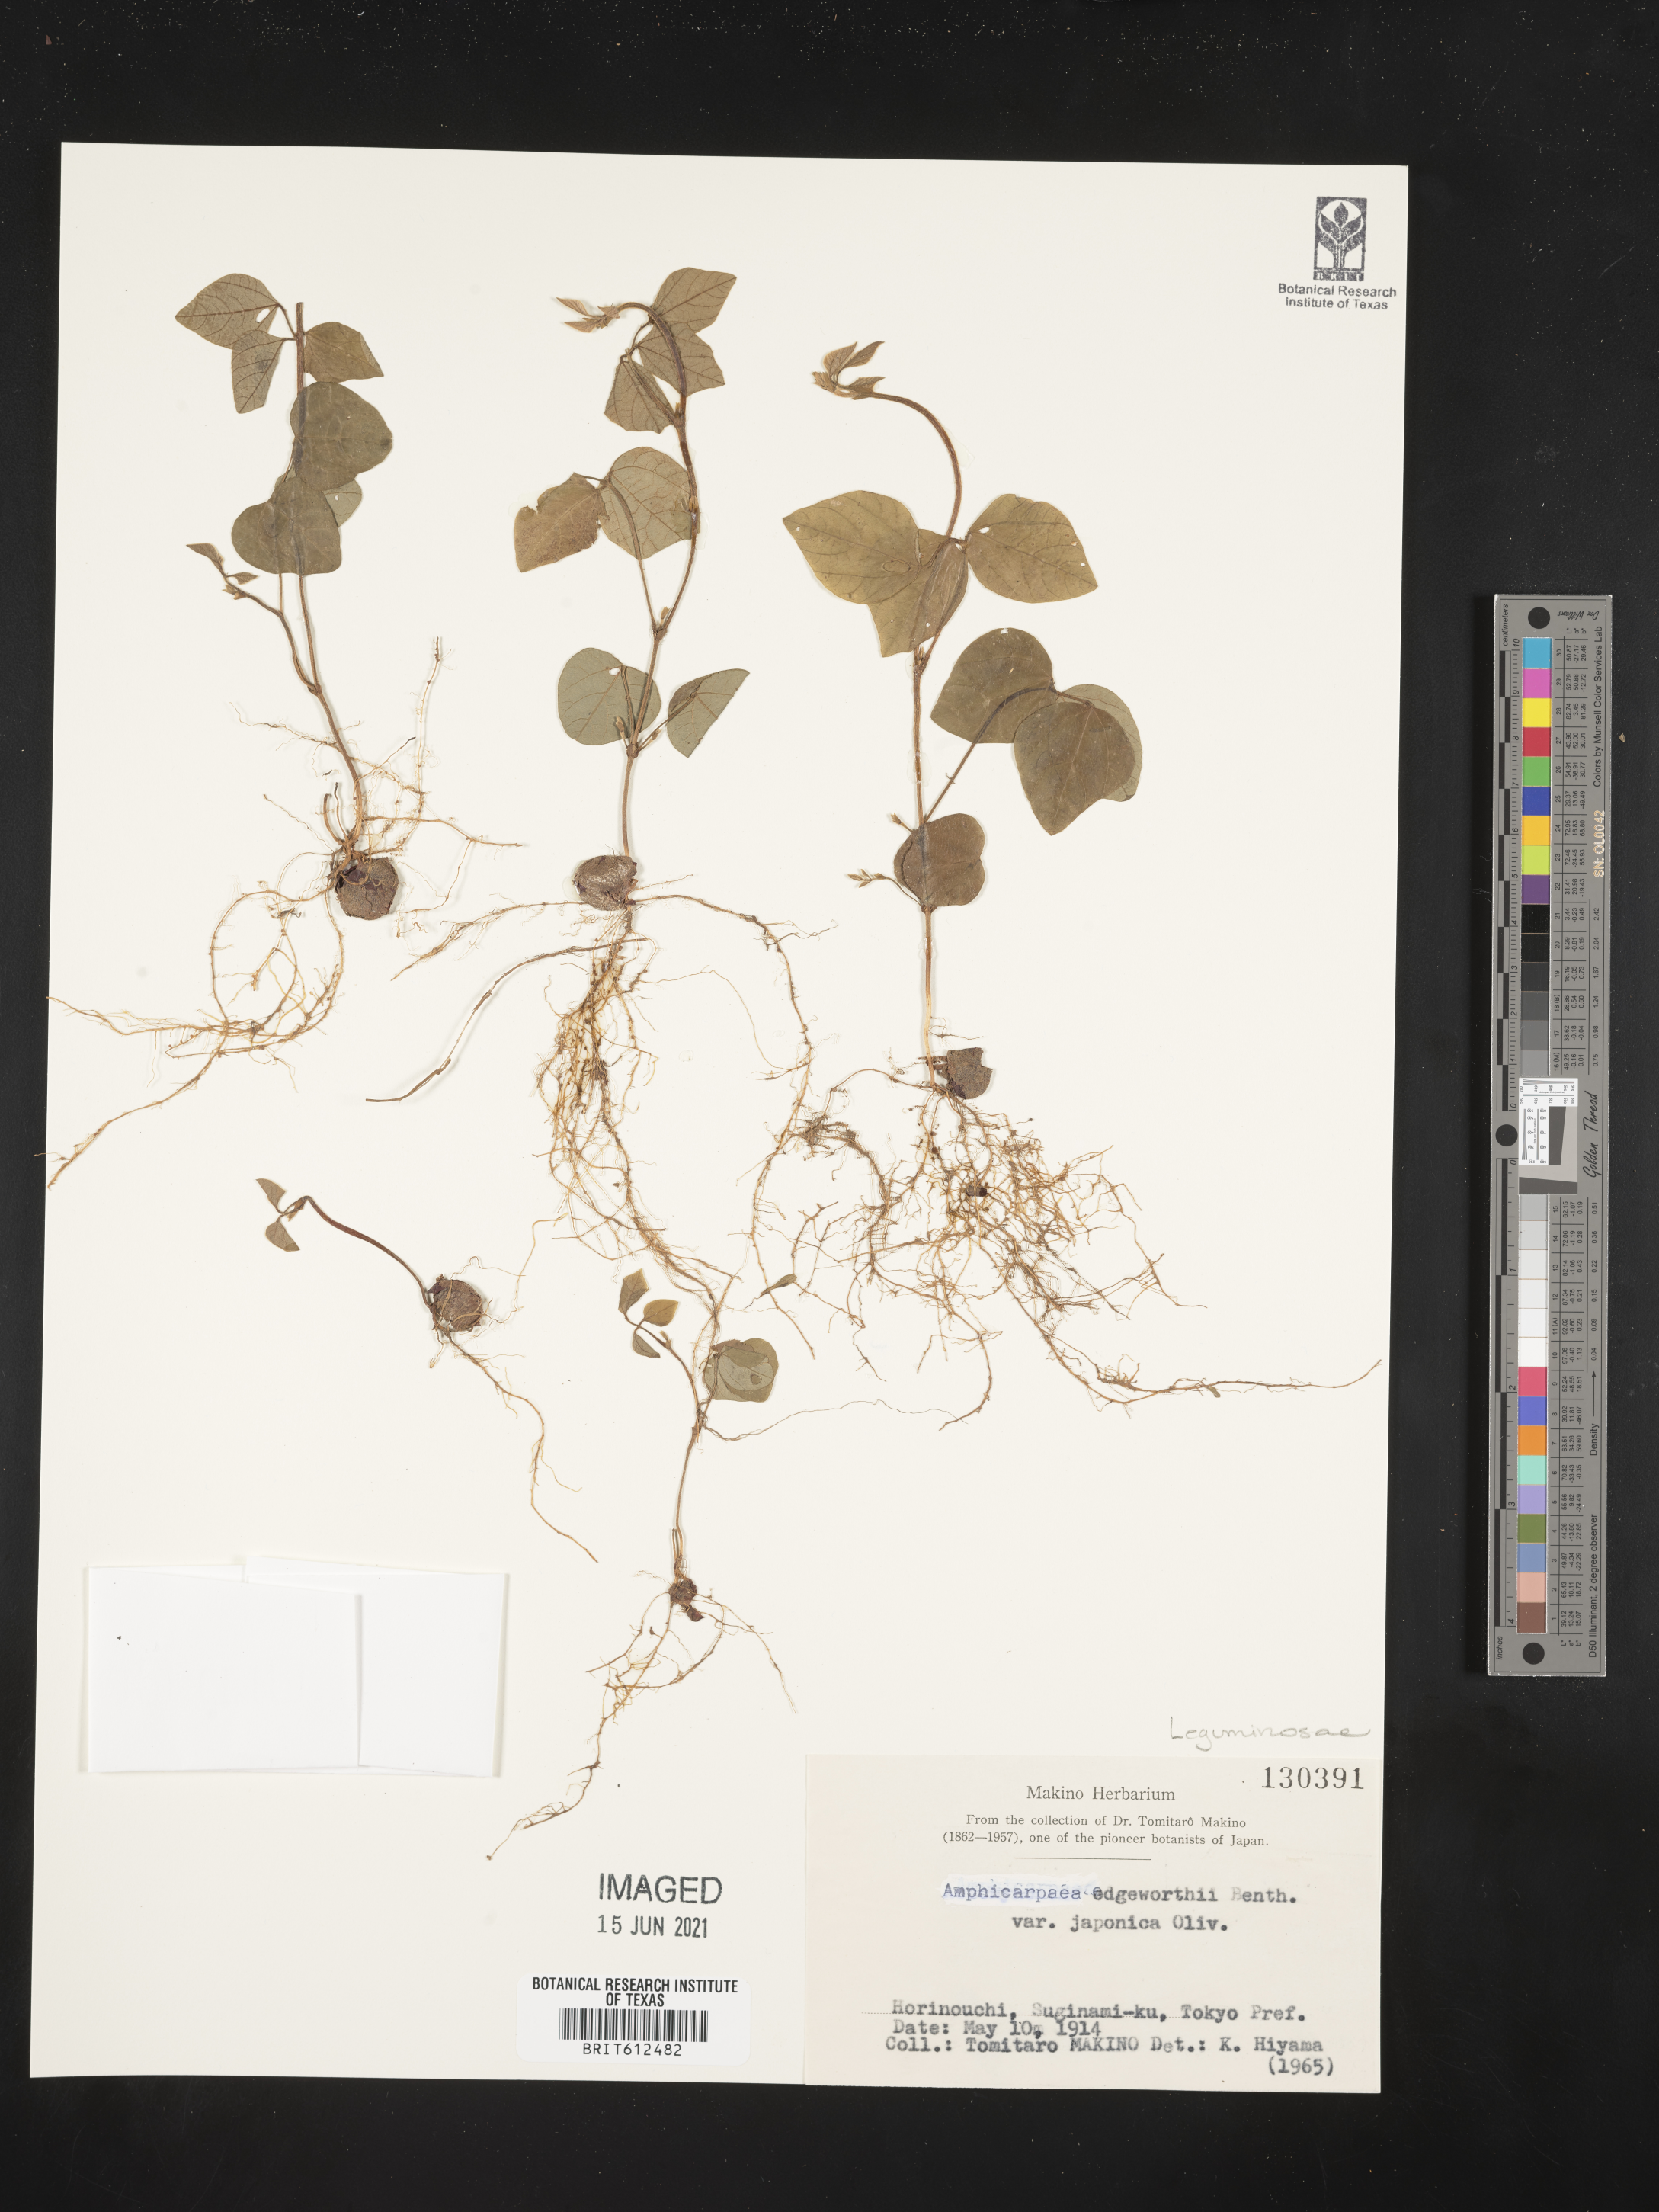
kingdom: Plantae
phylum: Tracheophyta
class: Magnoliopsida
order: Fabales
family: Fabaceae
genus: Amphicarpaea
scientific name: Amphicarpaea edgeworthii
